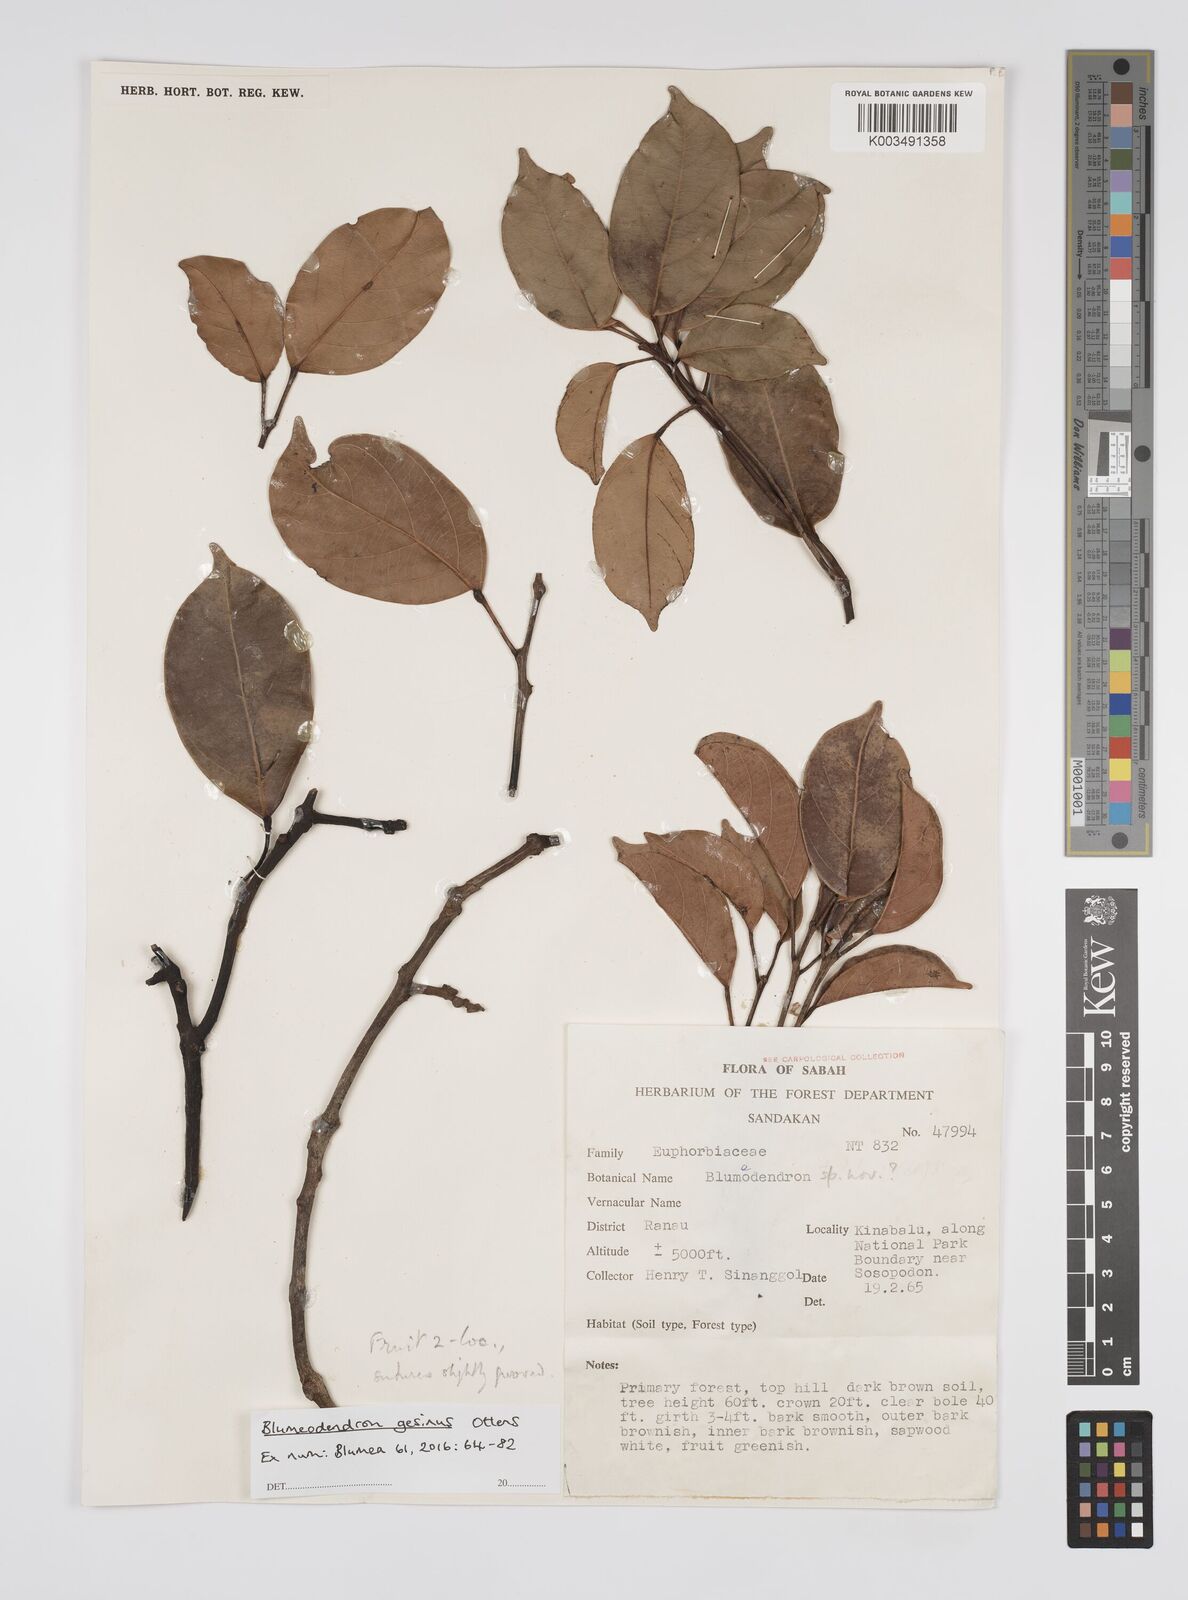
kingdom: Plantae
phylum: Tracheophyta
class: Magnoliopsida
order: Malpighiales
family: Euphorbiaceae
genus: Blumeodendron
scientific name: Blumeodendron gesinus
